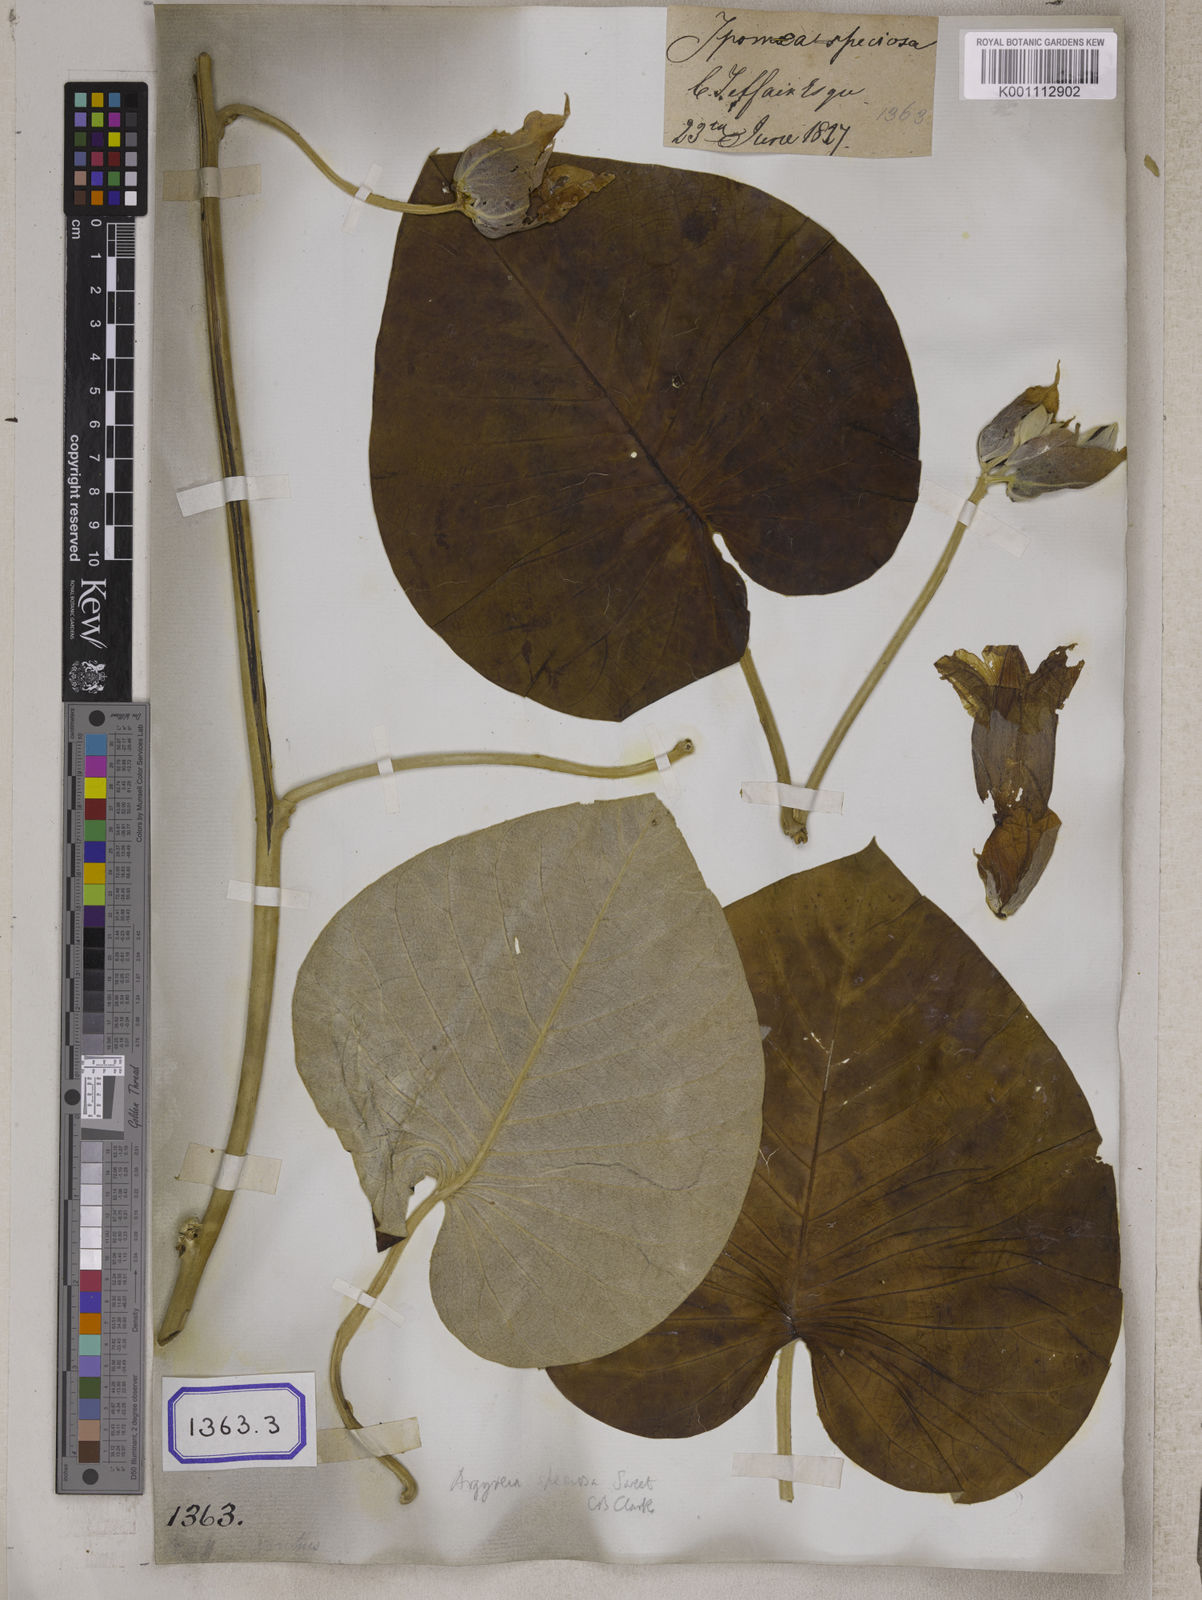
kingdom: Plantae
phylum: Tracheophyta
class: Magnoliopsida
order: Solanales
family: Convolvulaceae
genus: Convolvulus
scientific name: Convolvulus
